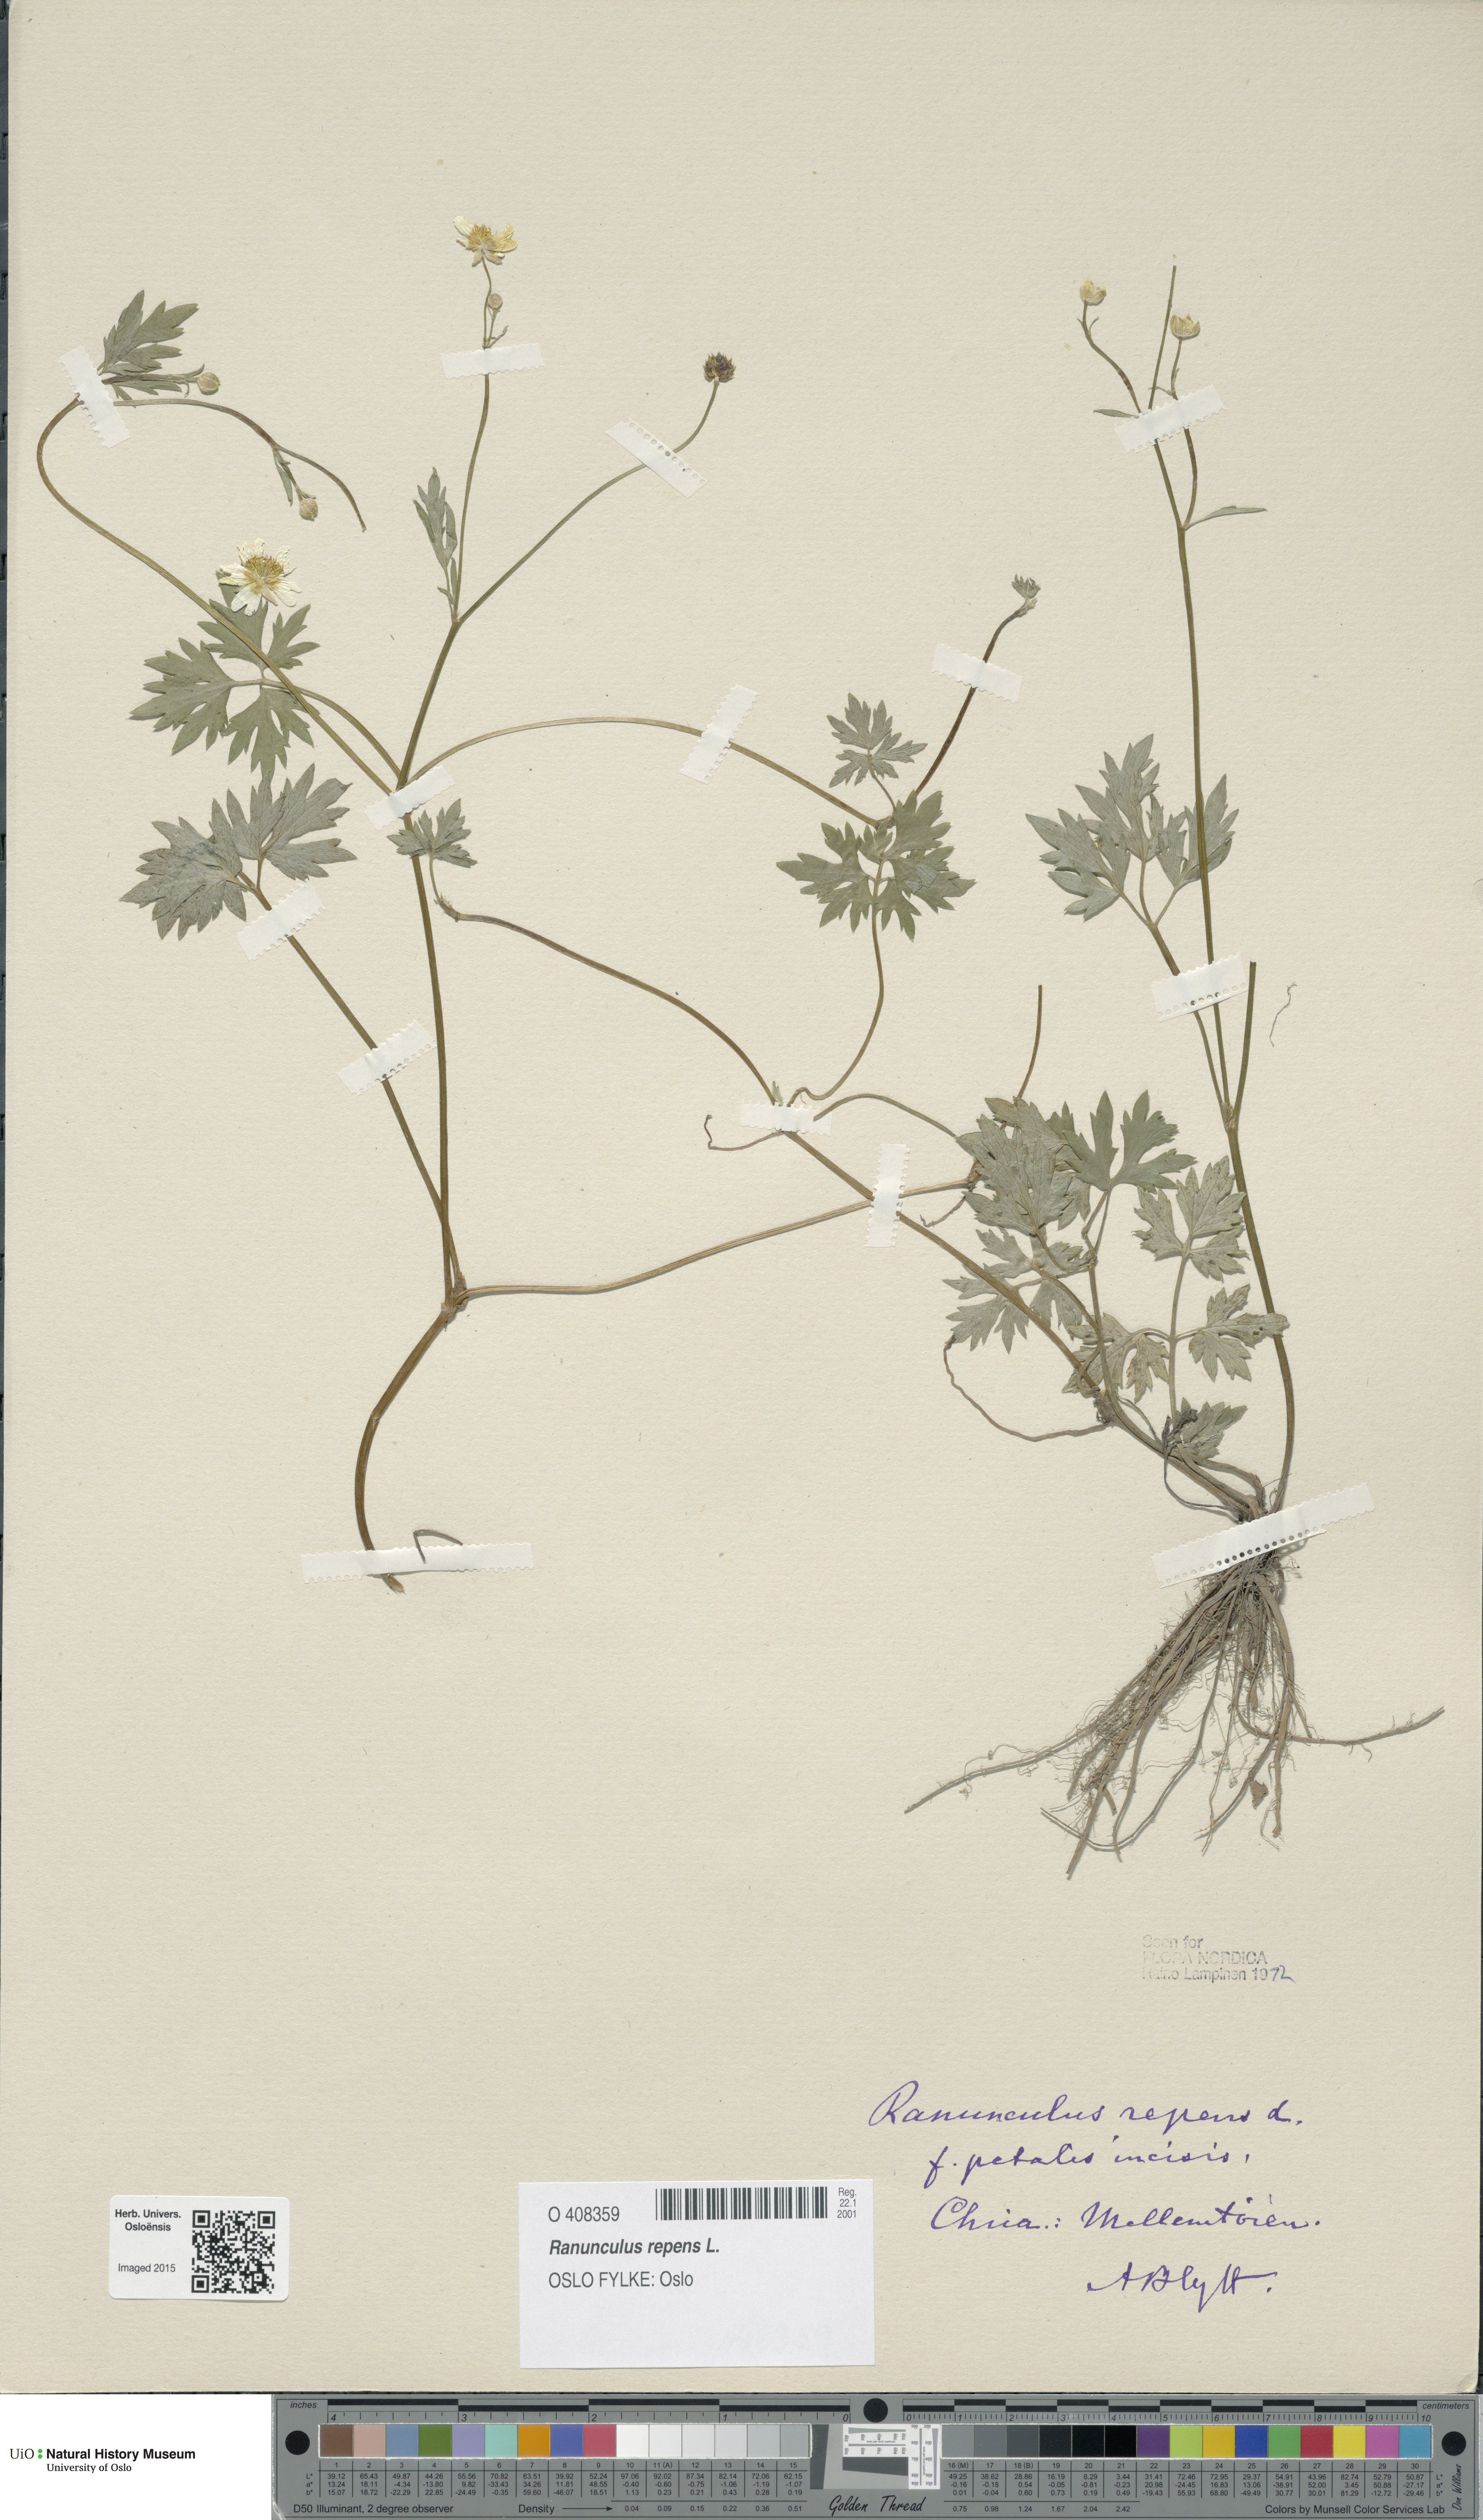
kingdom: Plantae
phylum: Tracheophyta
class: Magnoliopsida
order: Ranunculales
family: Ranunculaceae
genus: Ranunculus
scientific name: Ranunculus repens
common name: Creeping buttercup
